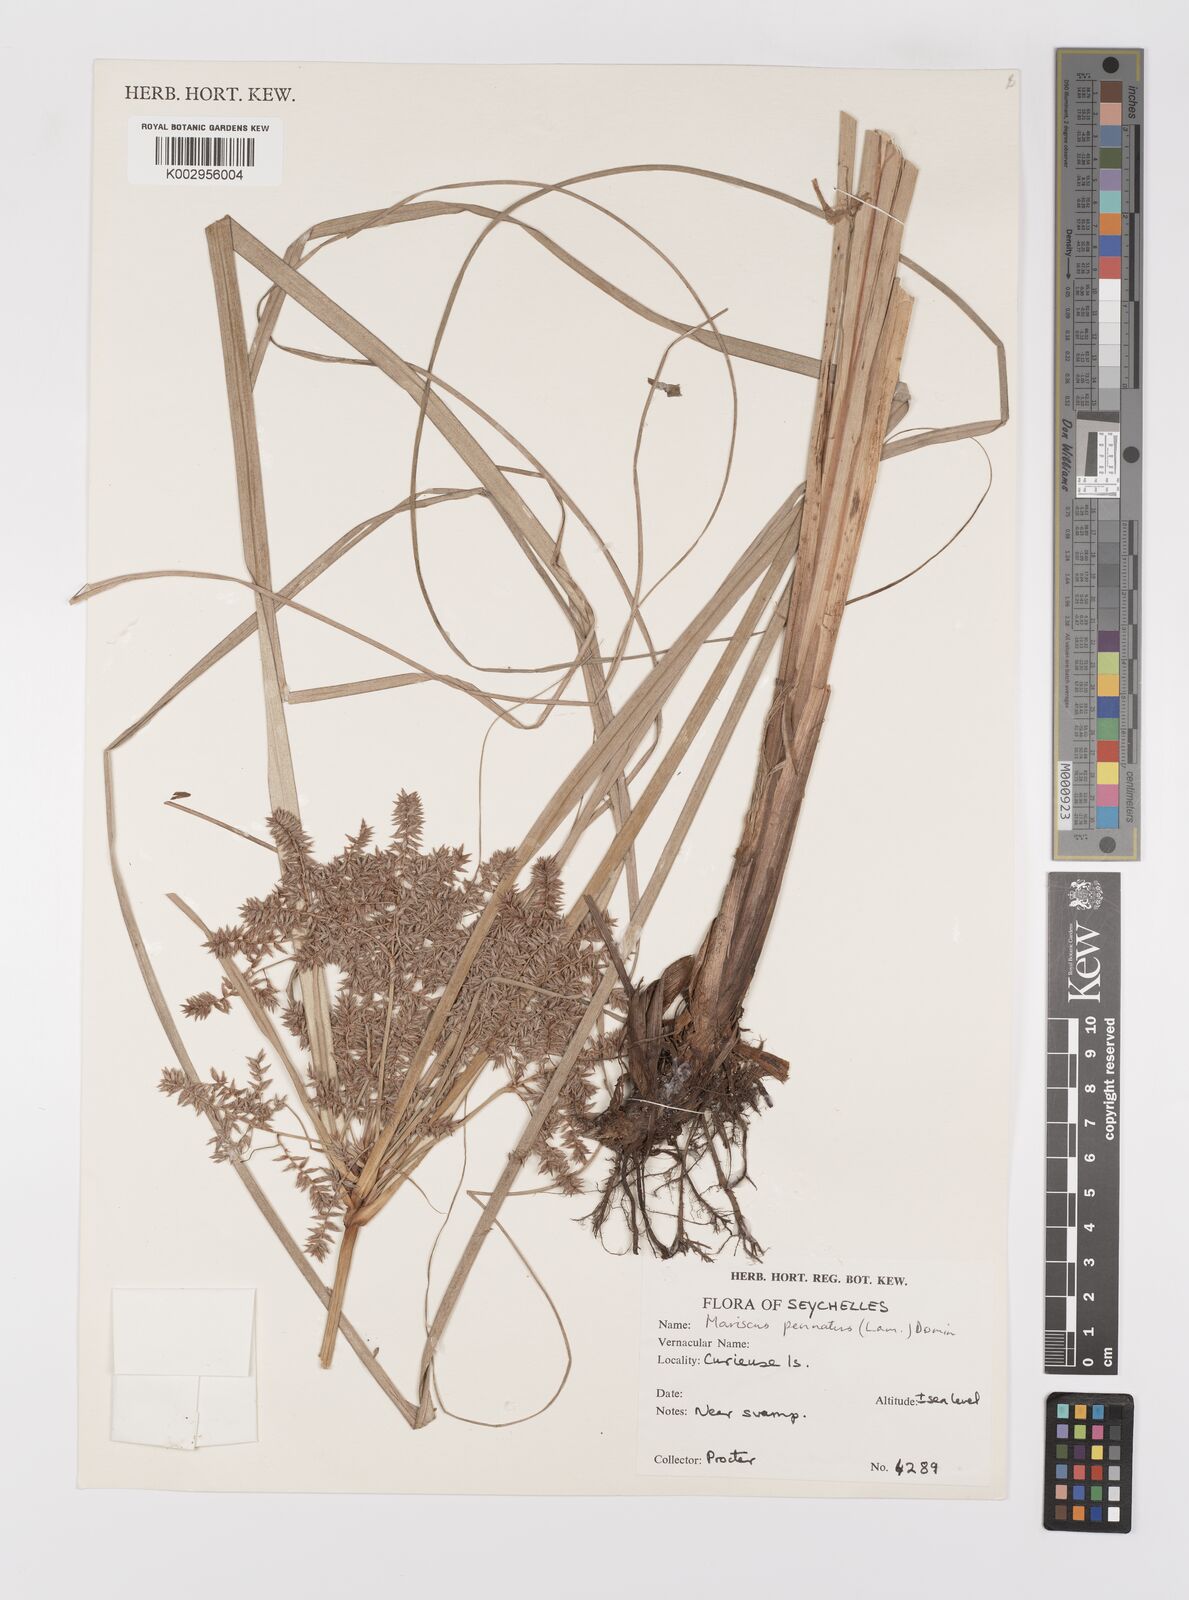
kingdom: Plantae
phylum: Tracheophyta
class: Liliopsida
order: Poales
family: Cyperaceae
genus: Cyperus
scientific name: Cyperus javanicus
